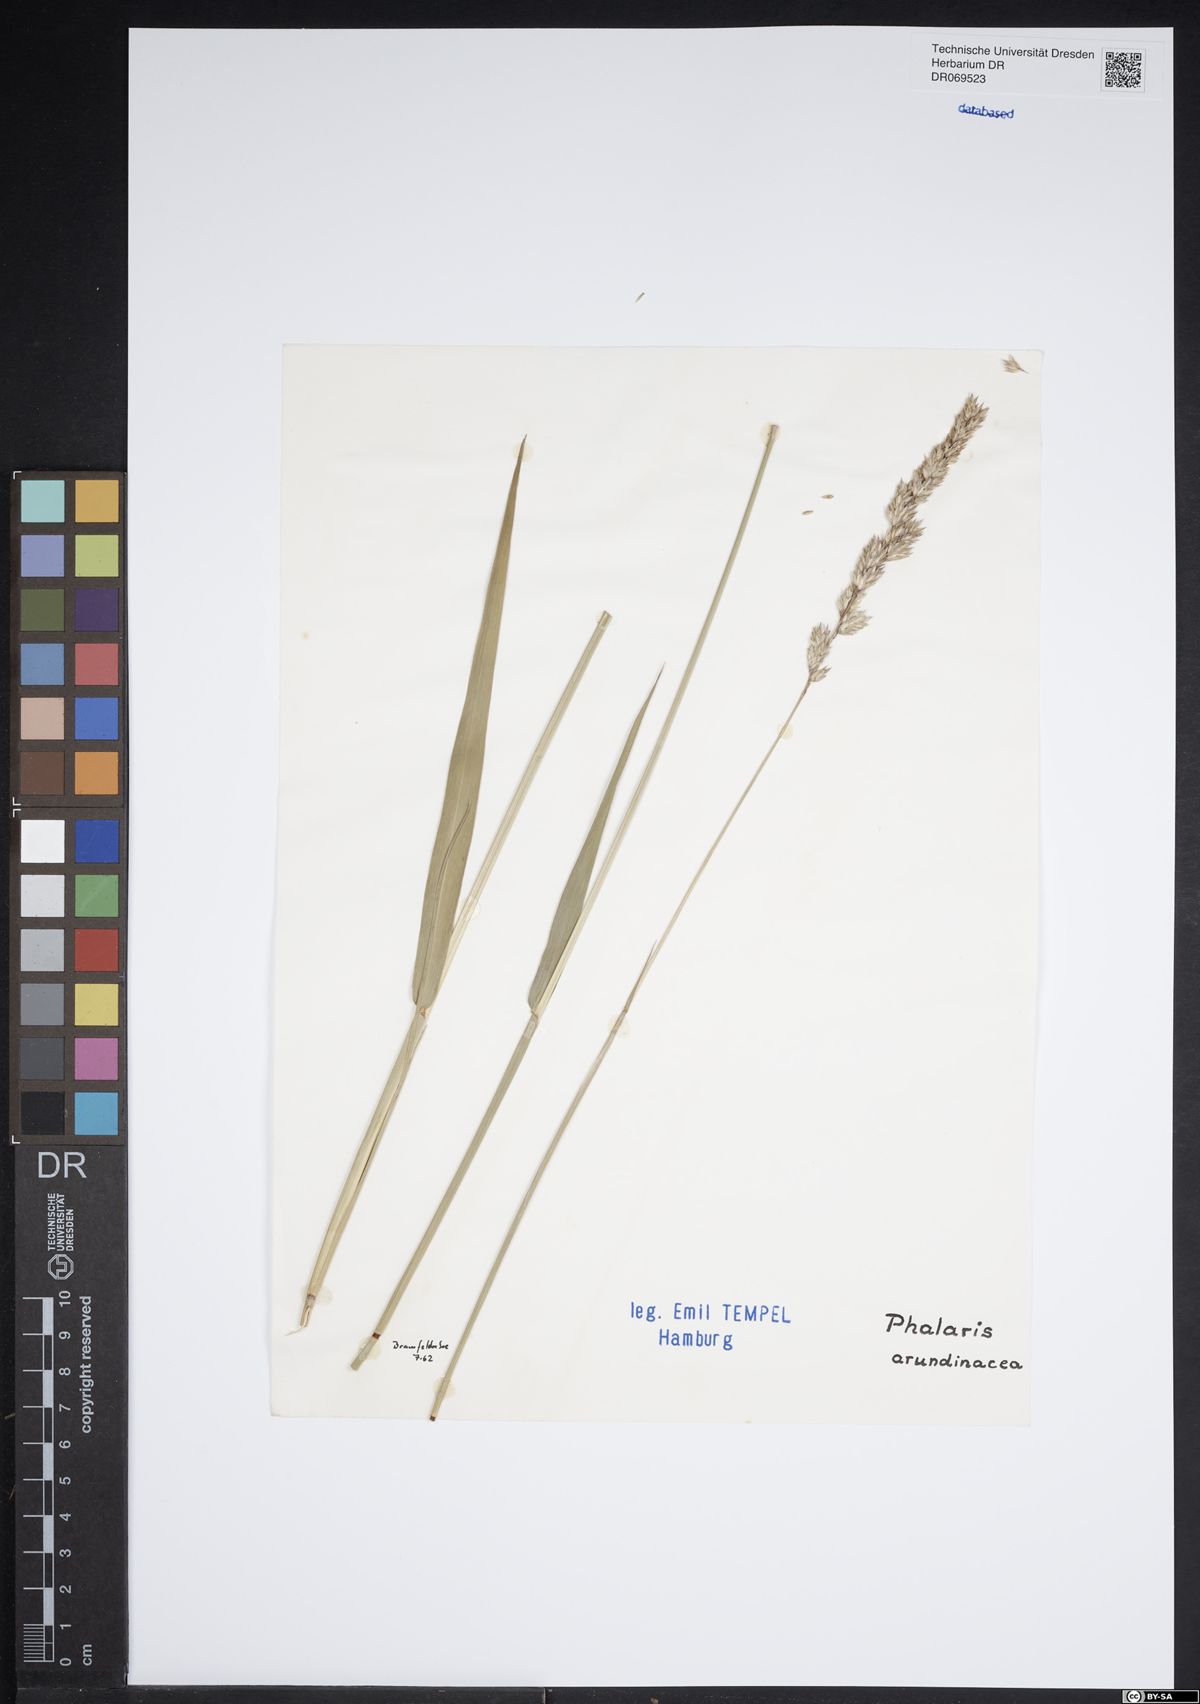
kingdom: Plantae
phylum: Tracheophyta
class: Liliopsida
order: Poales
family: Poaceae
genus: Phalaris
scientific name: Phalaris arundinacea
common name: Reed canary-grass
